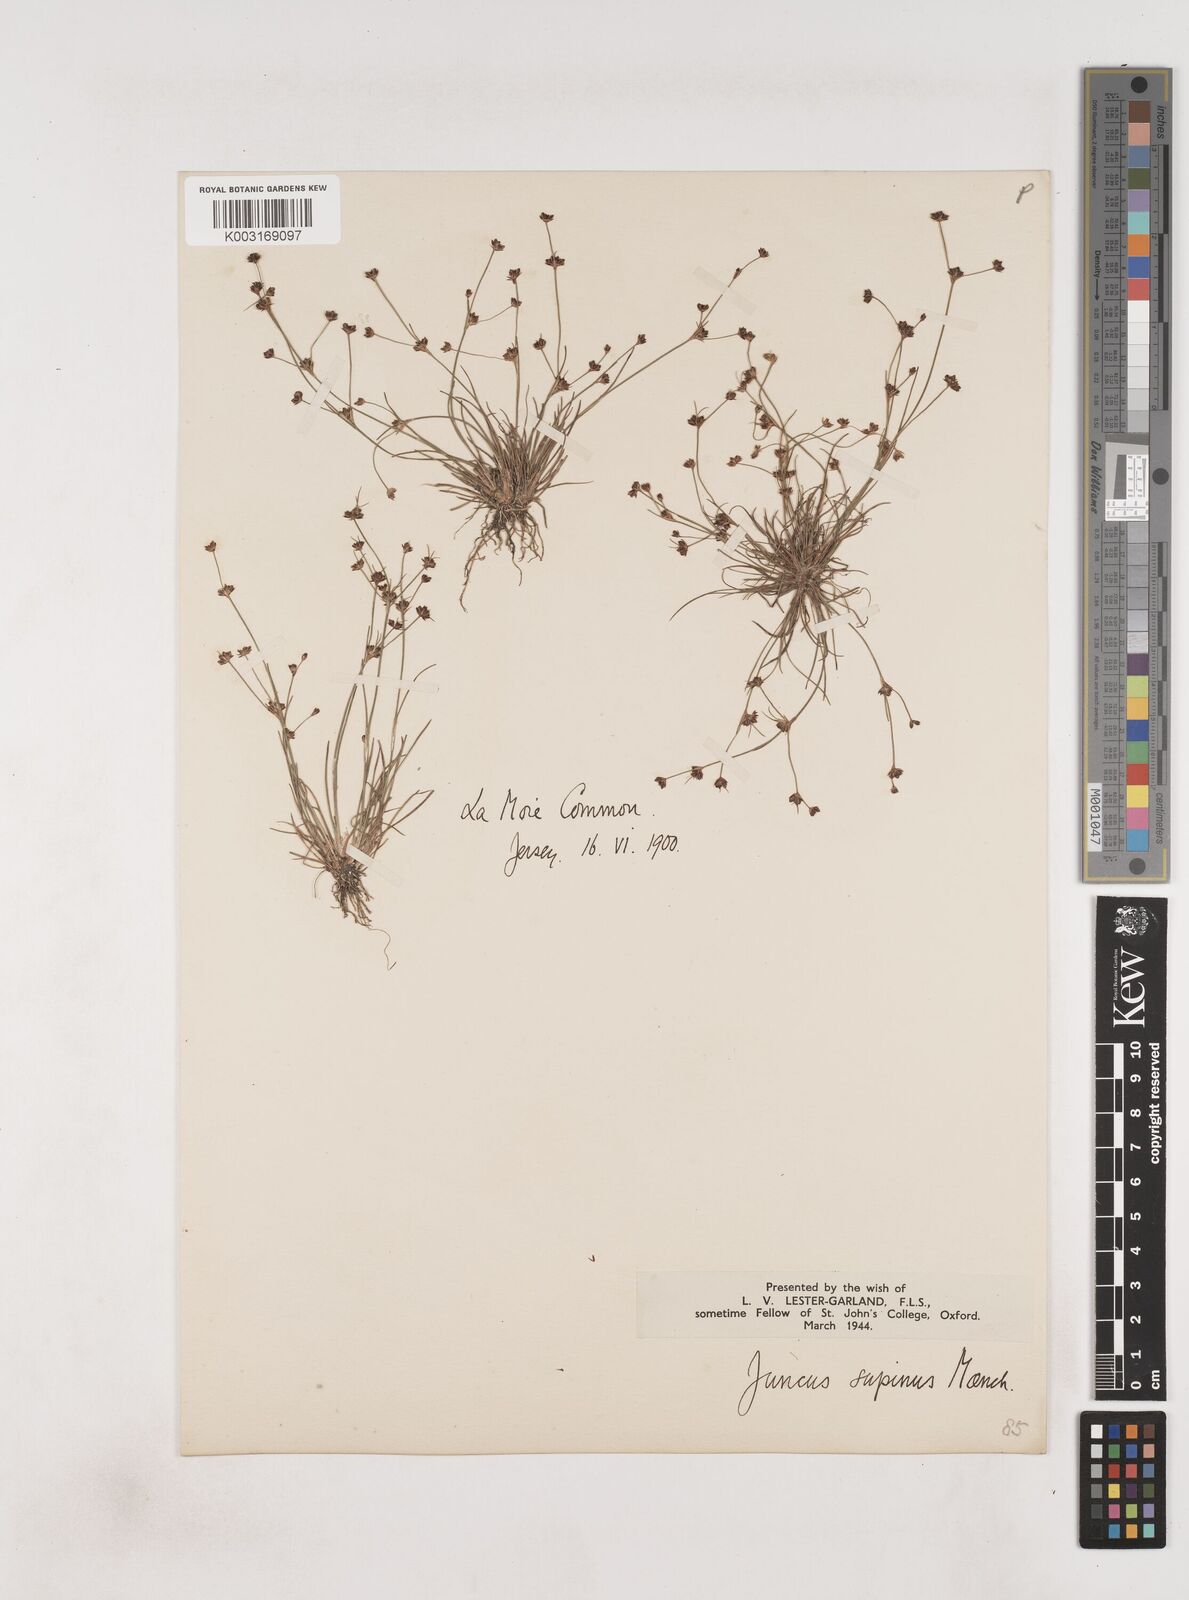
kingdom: Plantae
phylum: Tracheophyta
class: Liliopsida
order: Poales
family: Juncaceae
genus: Juncus
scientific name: Juncus bulbosus
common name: Bulbous rush
